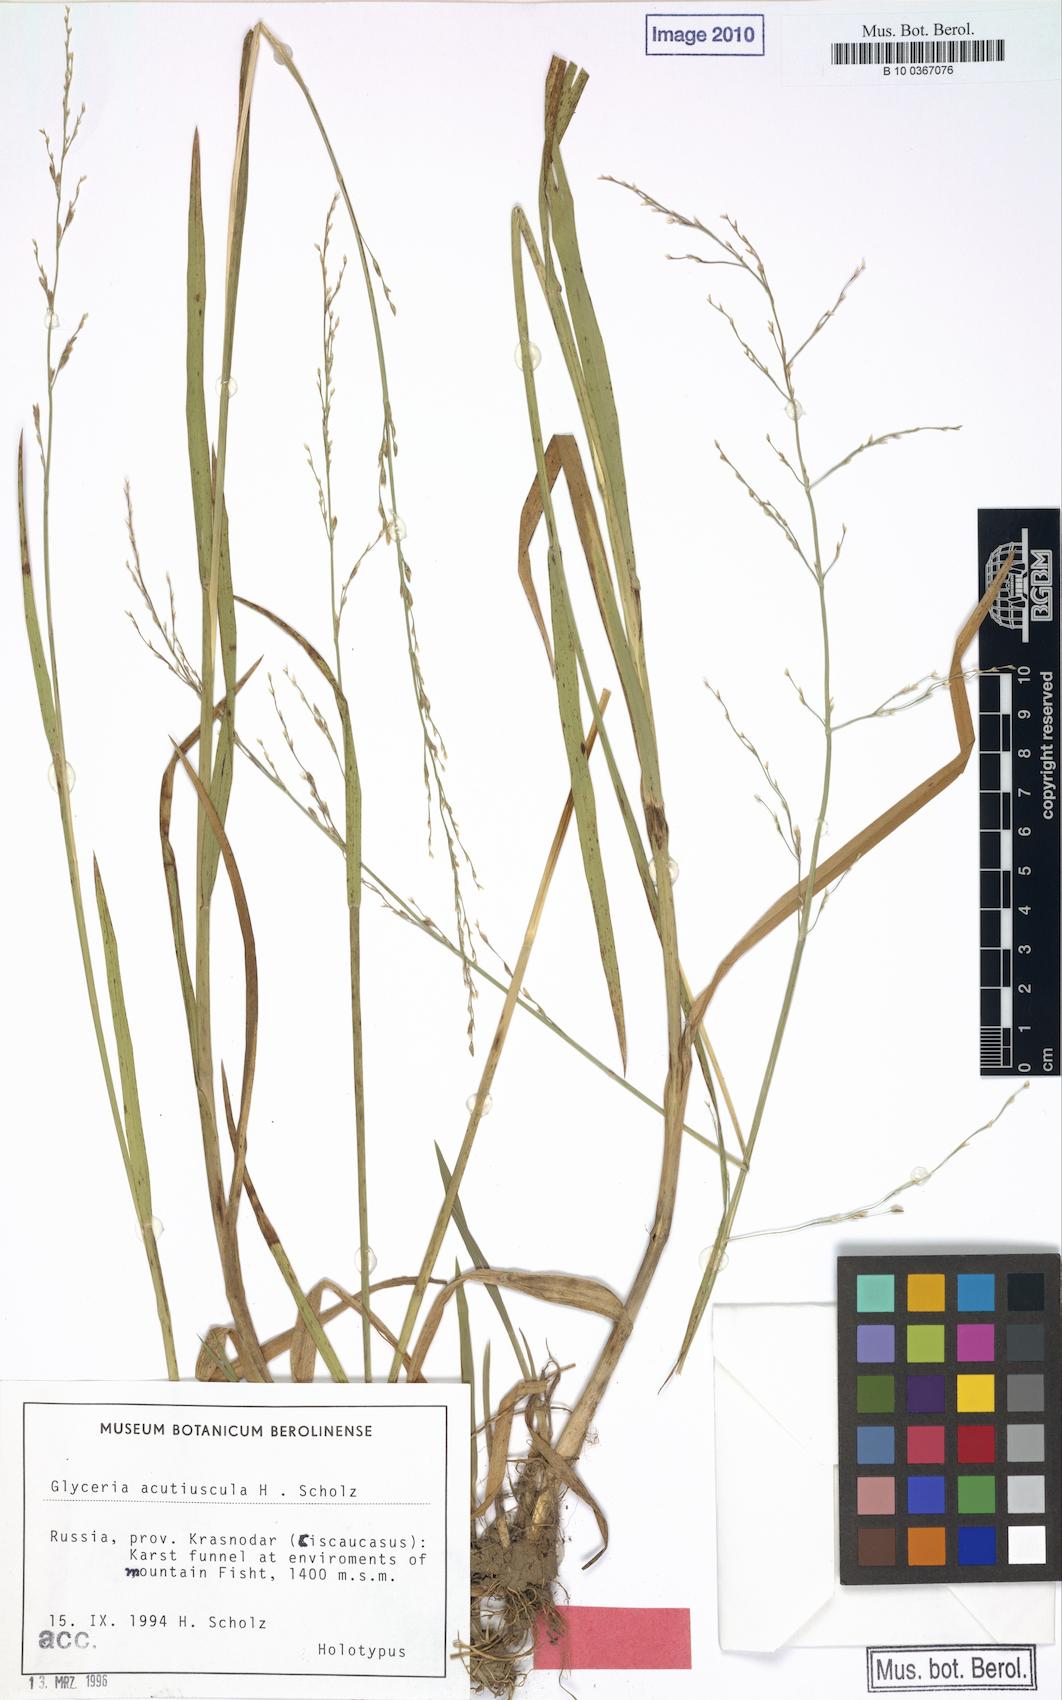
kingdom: Plantae
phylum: Tracheophyta
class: Liliopsida
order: Poales
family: Poaceae
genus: Glyceria
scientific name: Glyceria notata
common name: Plicate sweet-grass
